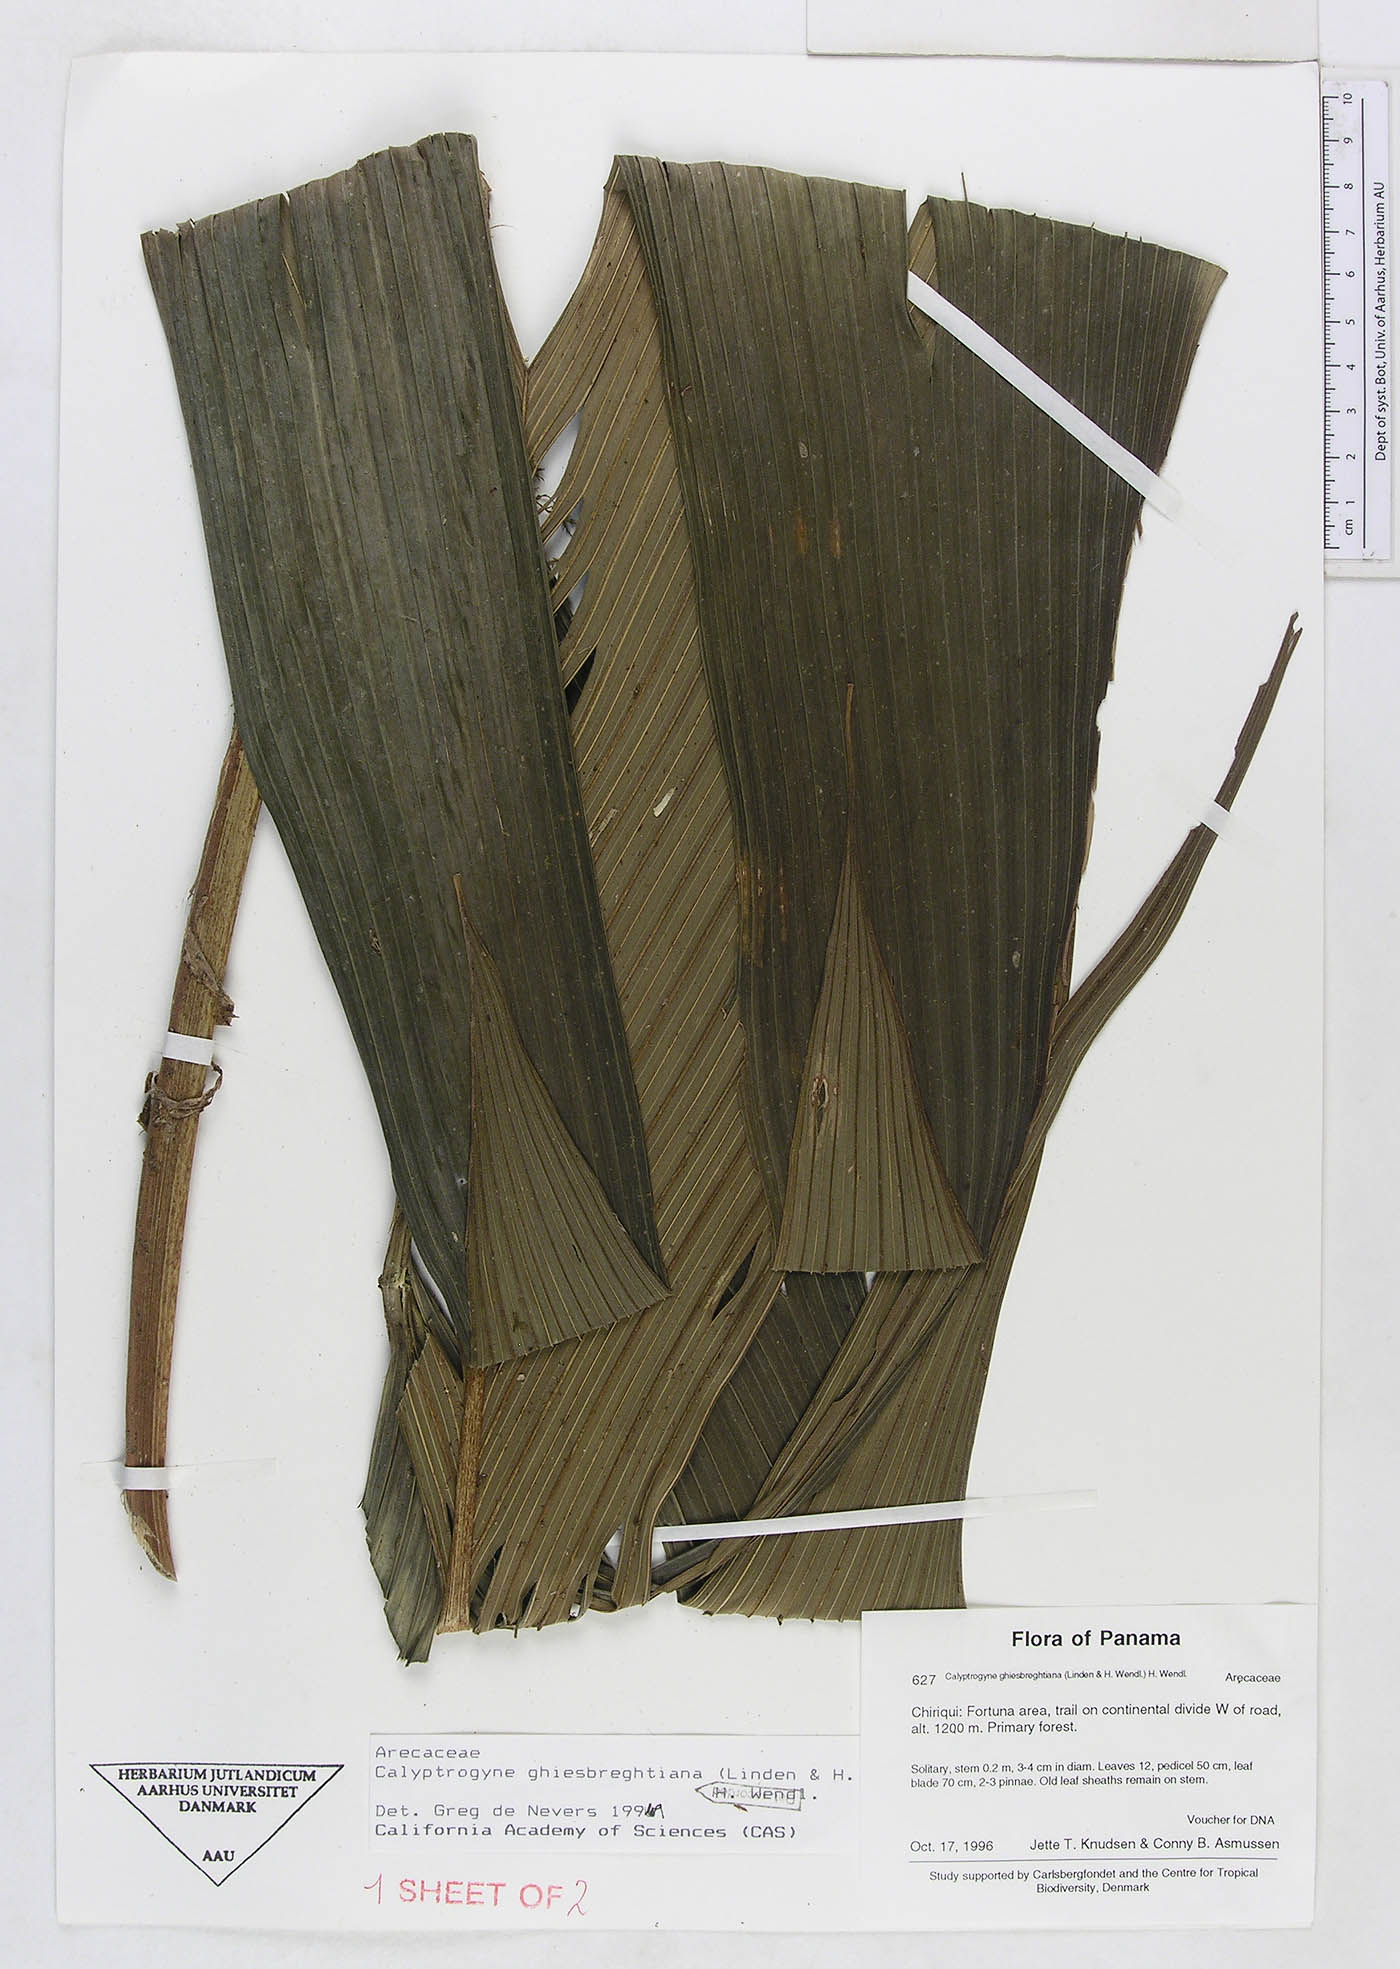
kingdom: Plantae
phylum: Tracheophyta
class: Liliopsida
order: Arecales
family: Arecaceae
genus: Calyptrogyne
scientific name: Calyptrogyne ghiesbreghtiana
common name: Coligallo
